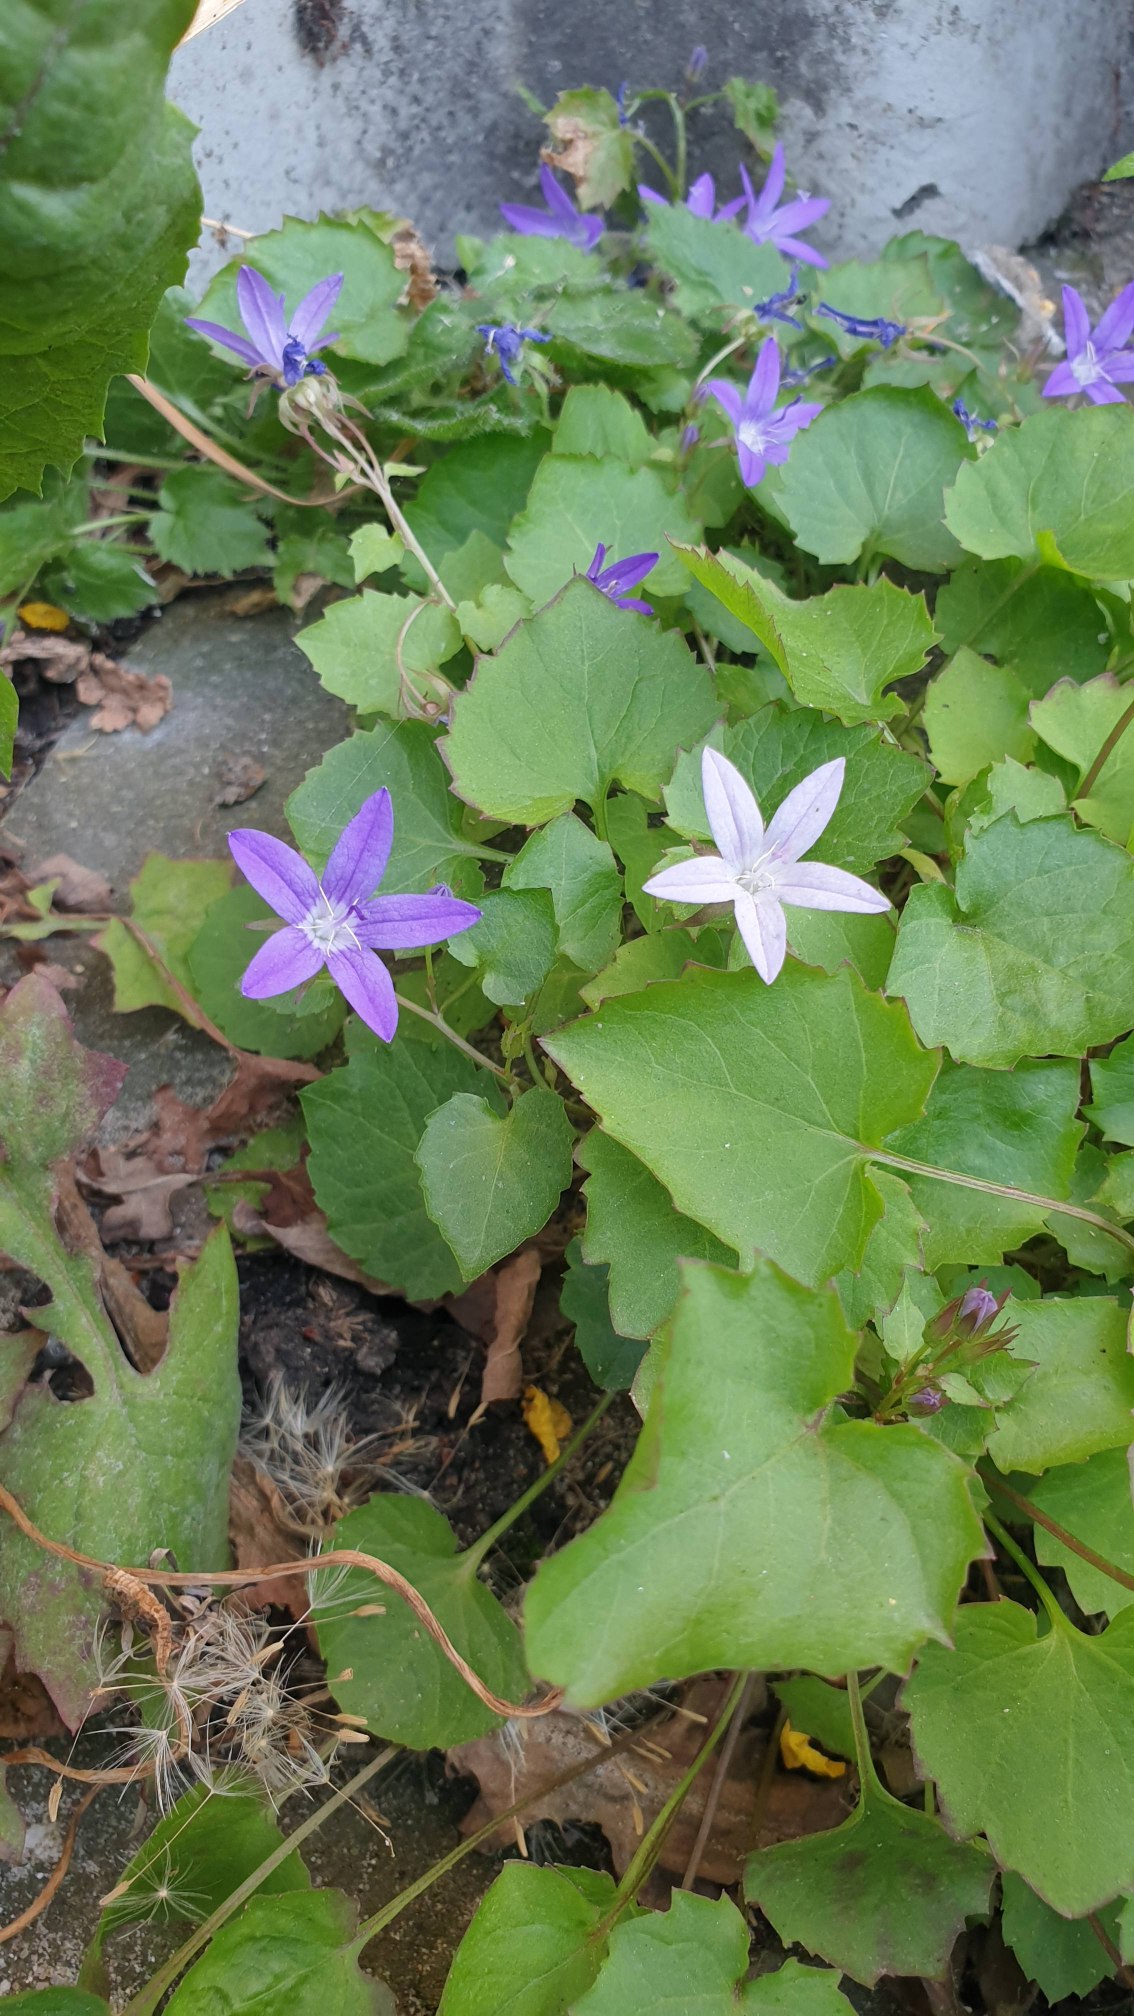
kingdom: Plantae
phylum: Tracheophyta
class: Magnoliopsida
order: Asterales
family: Campanulaceae
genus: Campanula
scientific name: Campanula poscharskyana
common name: Stjerne-klokke
